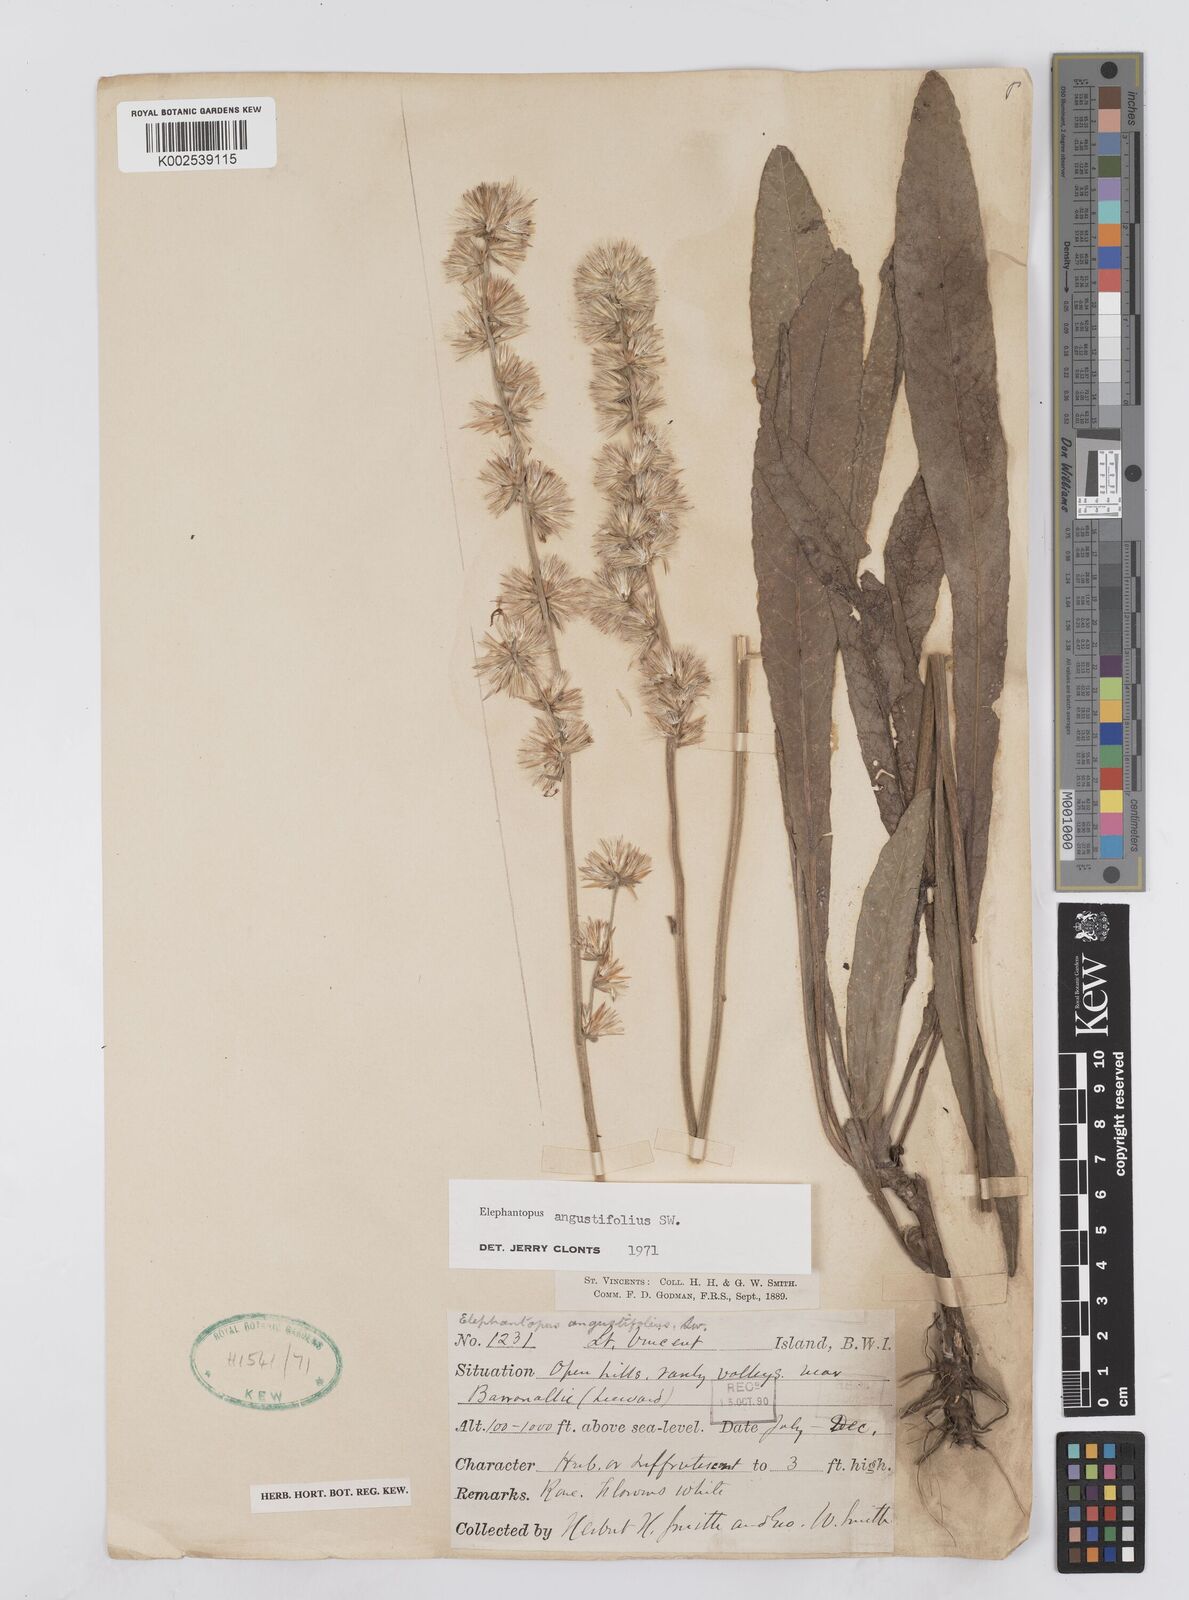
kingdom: Plantae
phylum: Tracheophyta
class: Magnoliopsida
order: Asterales
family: Asteraceae
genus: Orthopappus
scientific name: Orthopappus angustifolius
